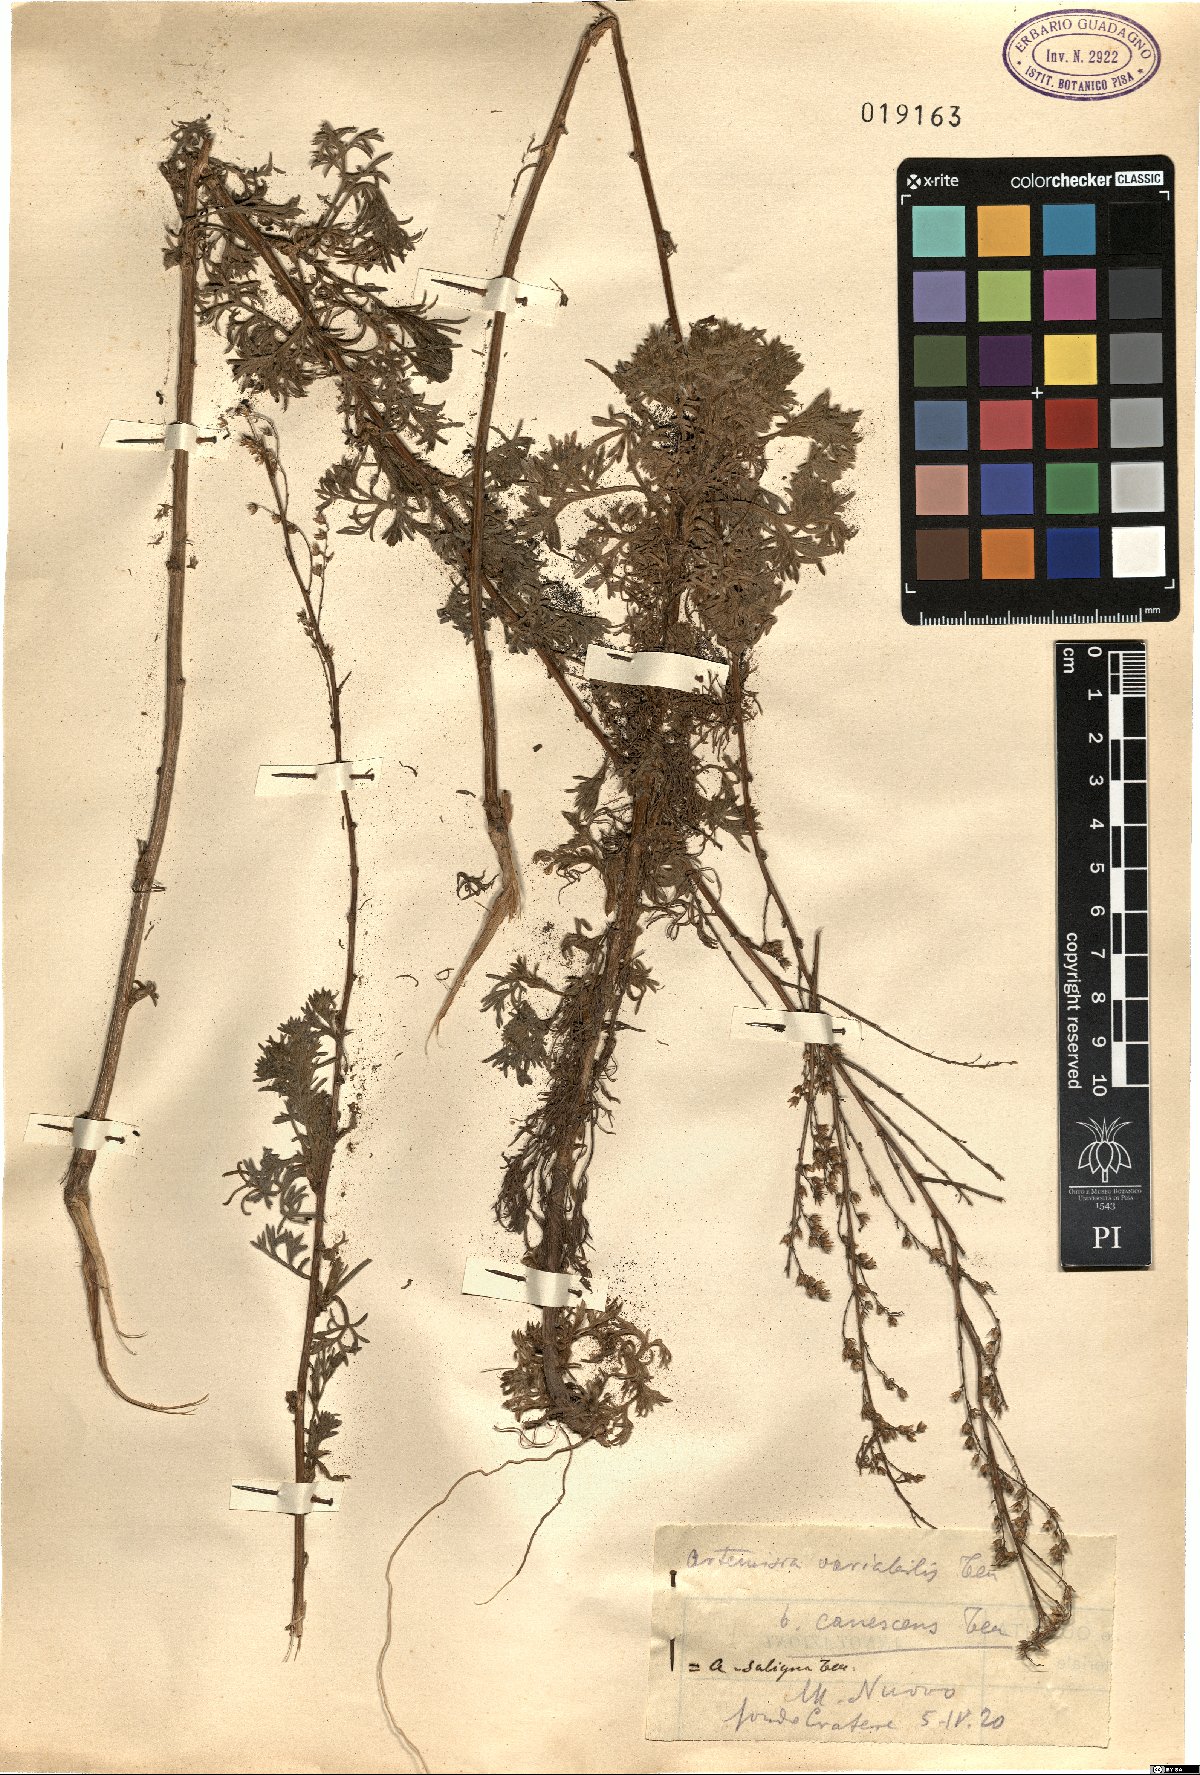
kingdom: Plantae
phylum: Tracheophyta
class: Magnoliopsida
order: Asterales
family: Asteraceae
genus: Artemisia
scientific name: Artemisia campestris
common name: Field wormwood
